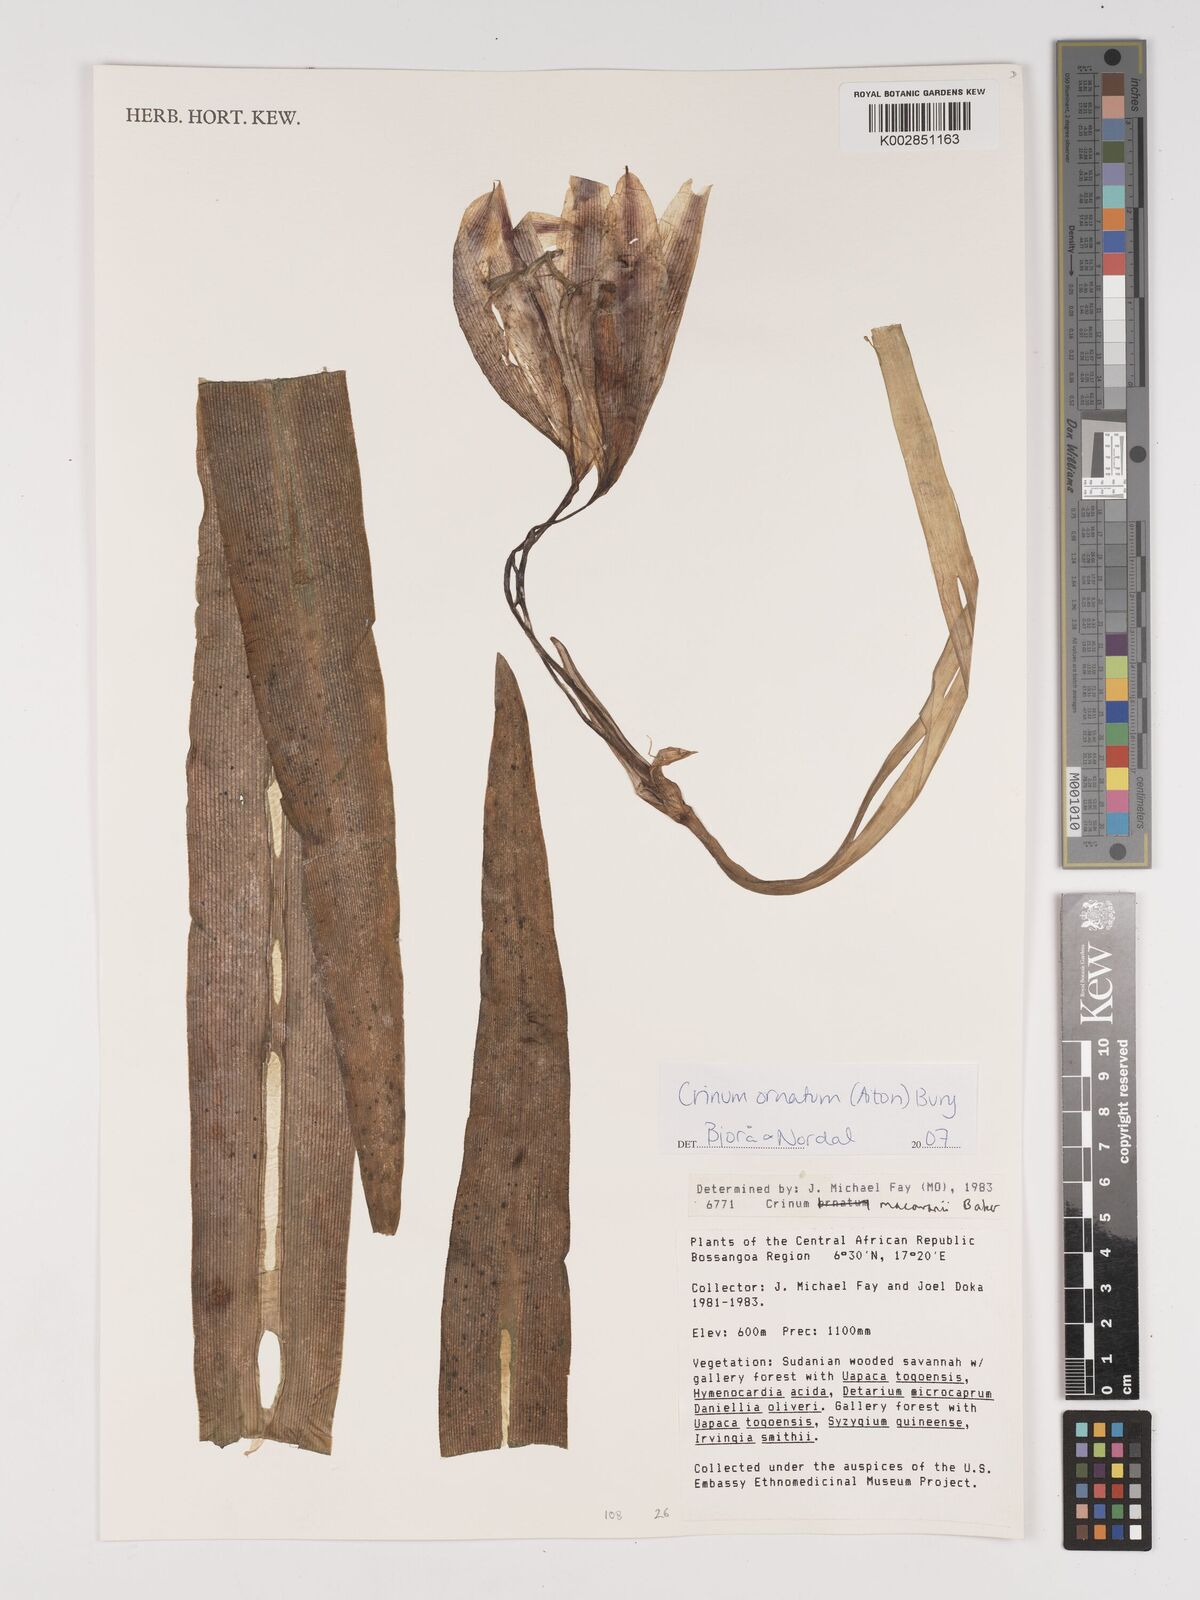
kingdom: Plantae
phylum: Tracheophyta
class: Liliopsida
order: Asparagales
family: Amaryllidaceae
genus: Crinum
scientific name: Crinum macowanii
